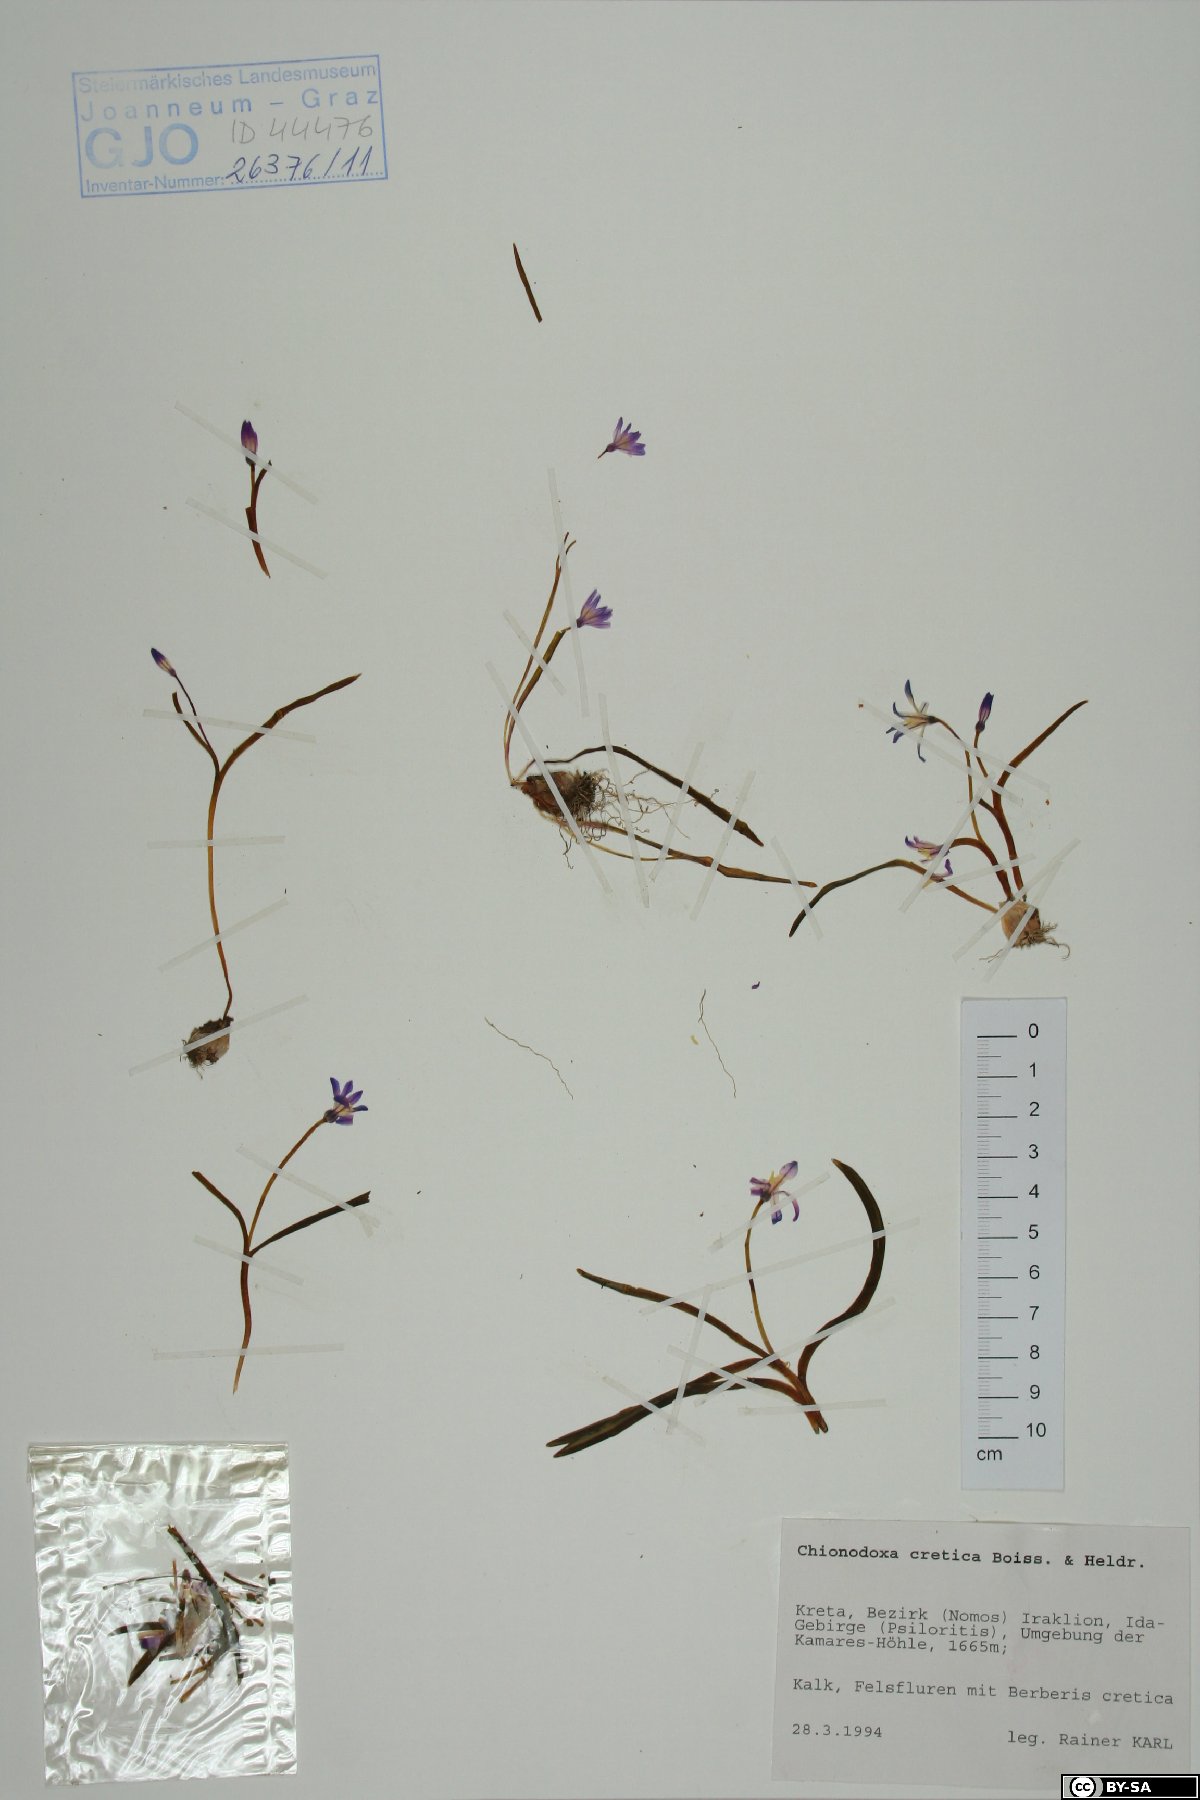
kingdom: Plantae
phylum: Tracheophyta
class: Liliopsida
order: Asparagales
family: Asparagaceae
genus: Scilla
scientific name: Scilla cretica
